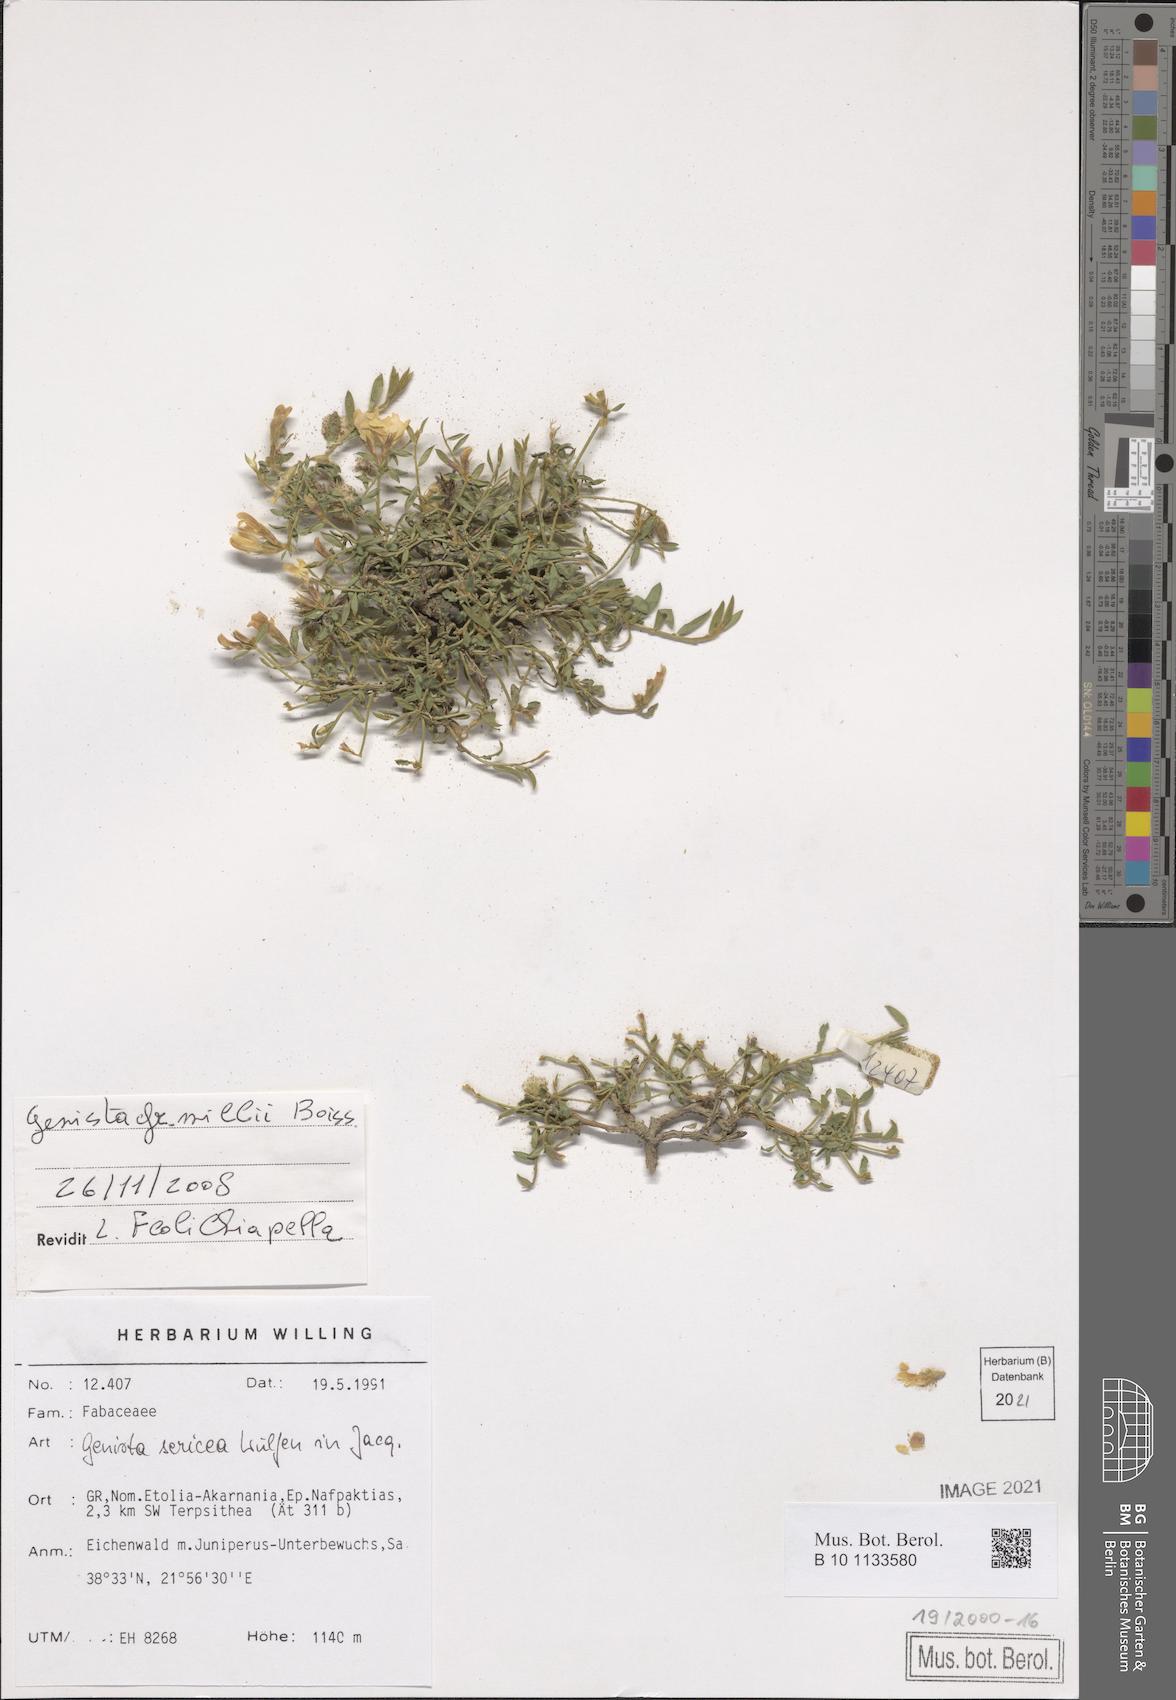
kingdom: Plantae
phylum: Tracheophyta
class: Magnoliopsida
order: Fabales
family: Fabaceae
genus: Genista
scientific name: Genista millii
